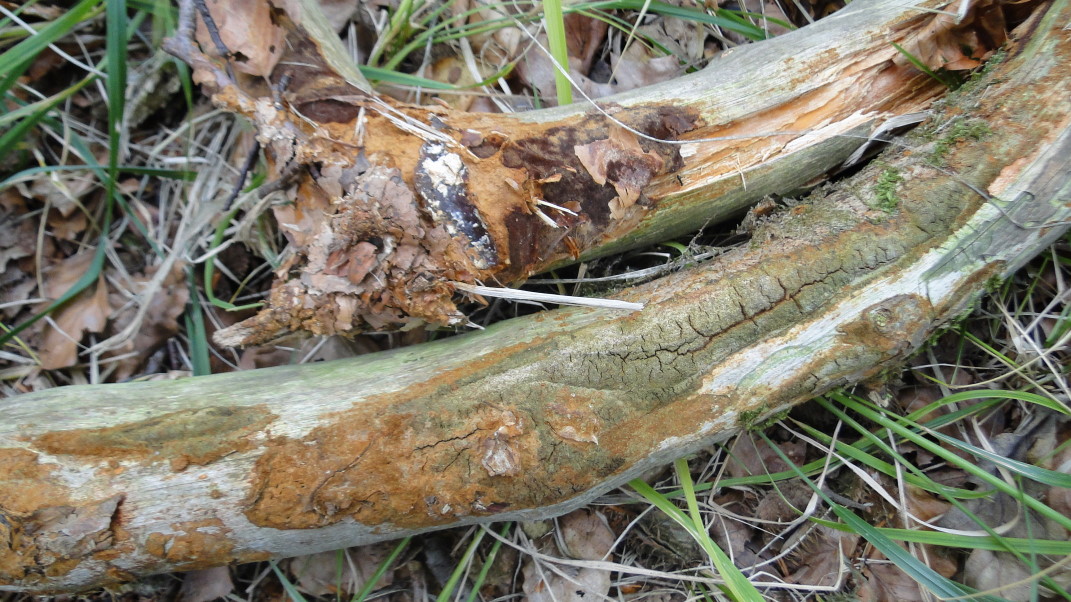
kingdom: Fungi
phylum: Basidiomycota
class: Agaricomycetes
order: Hymenochaetales
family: Hymenochaetaceae
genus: Fuscoporia
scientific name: Fuscoporia ferrea
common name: skorpe-ildporesvamp
